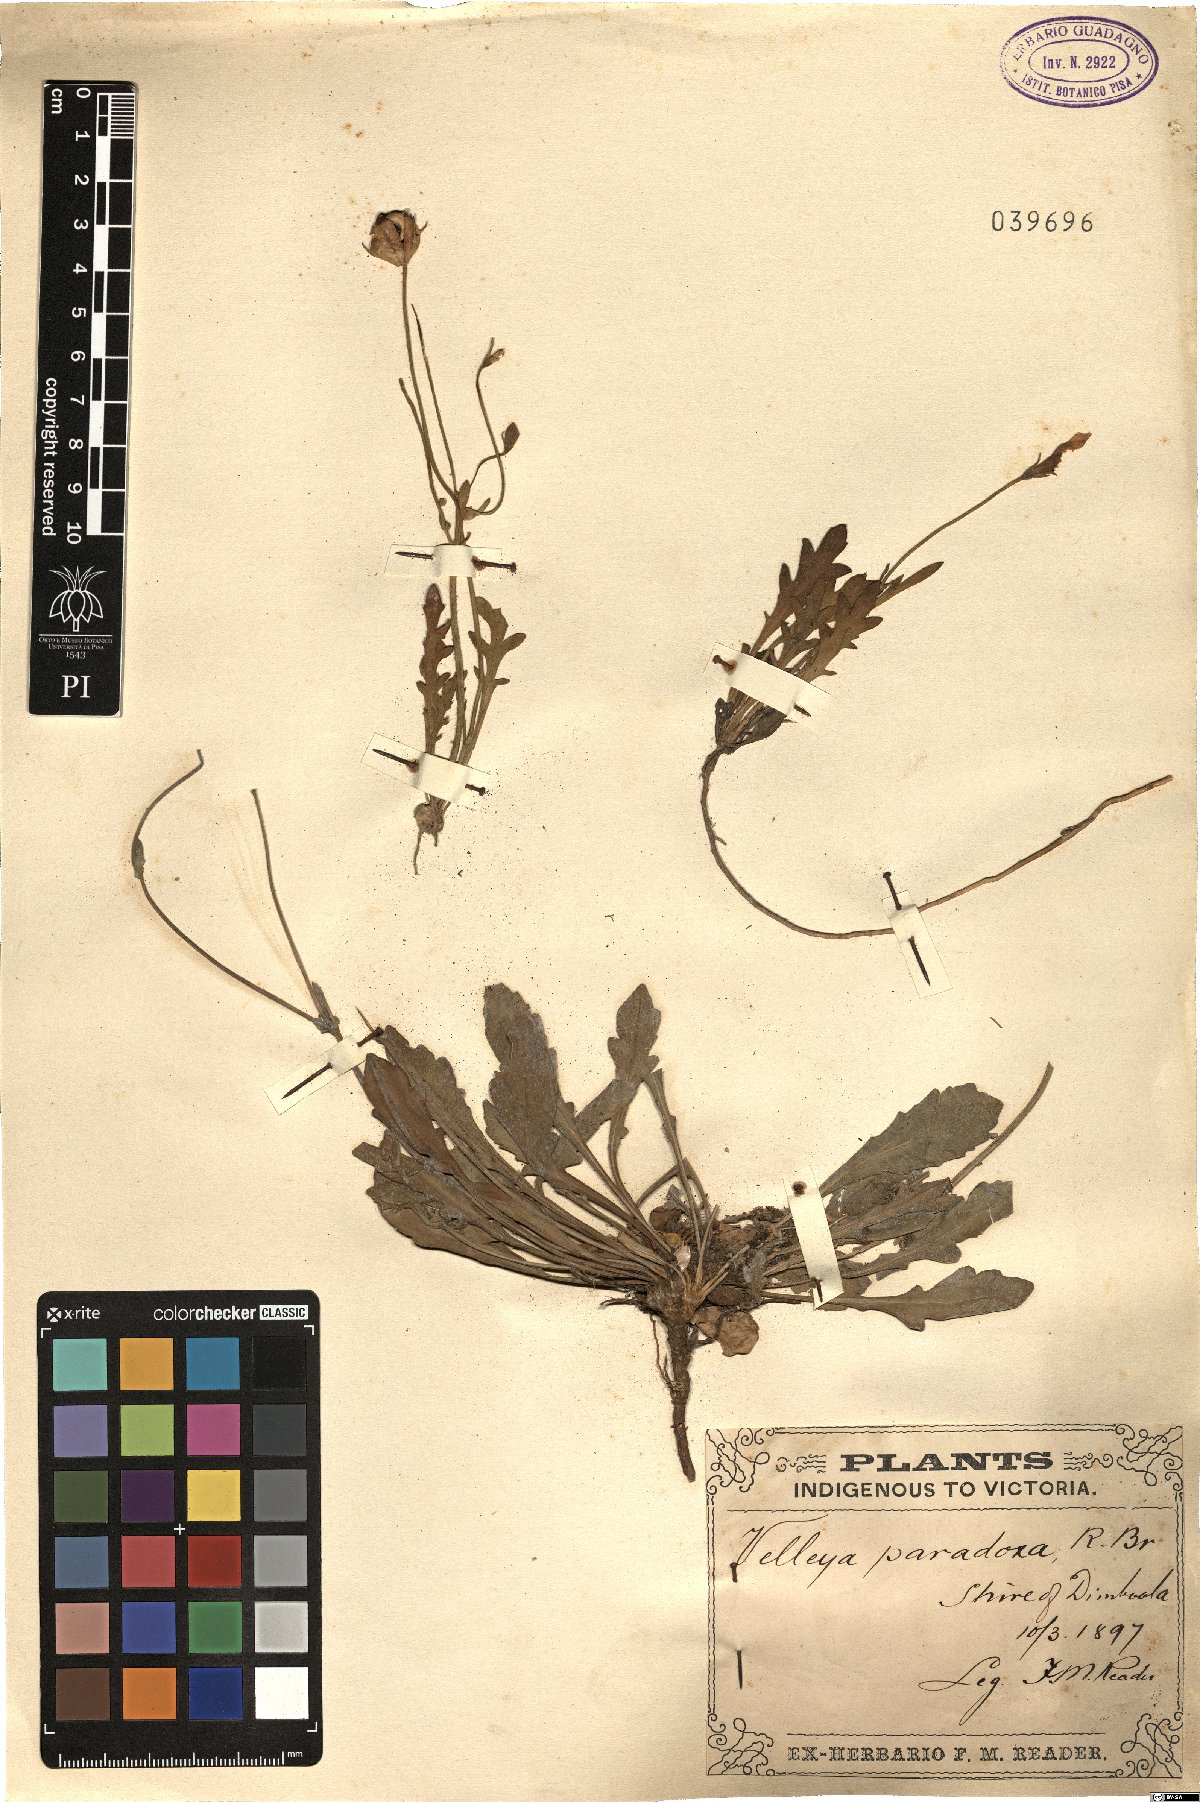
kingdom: Plantae
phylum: Tracheophyta
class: Magnoliopsida
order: Asterales
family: Goodeniaceae
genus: Goodenia
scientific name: Goodenia paradoxa
